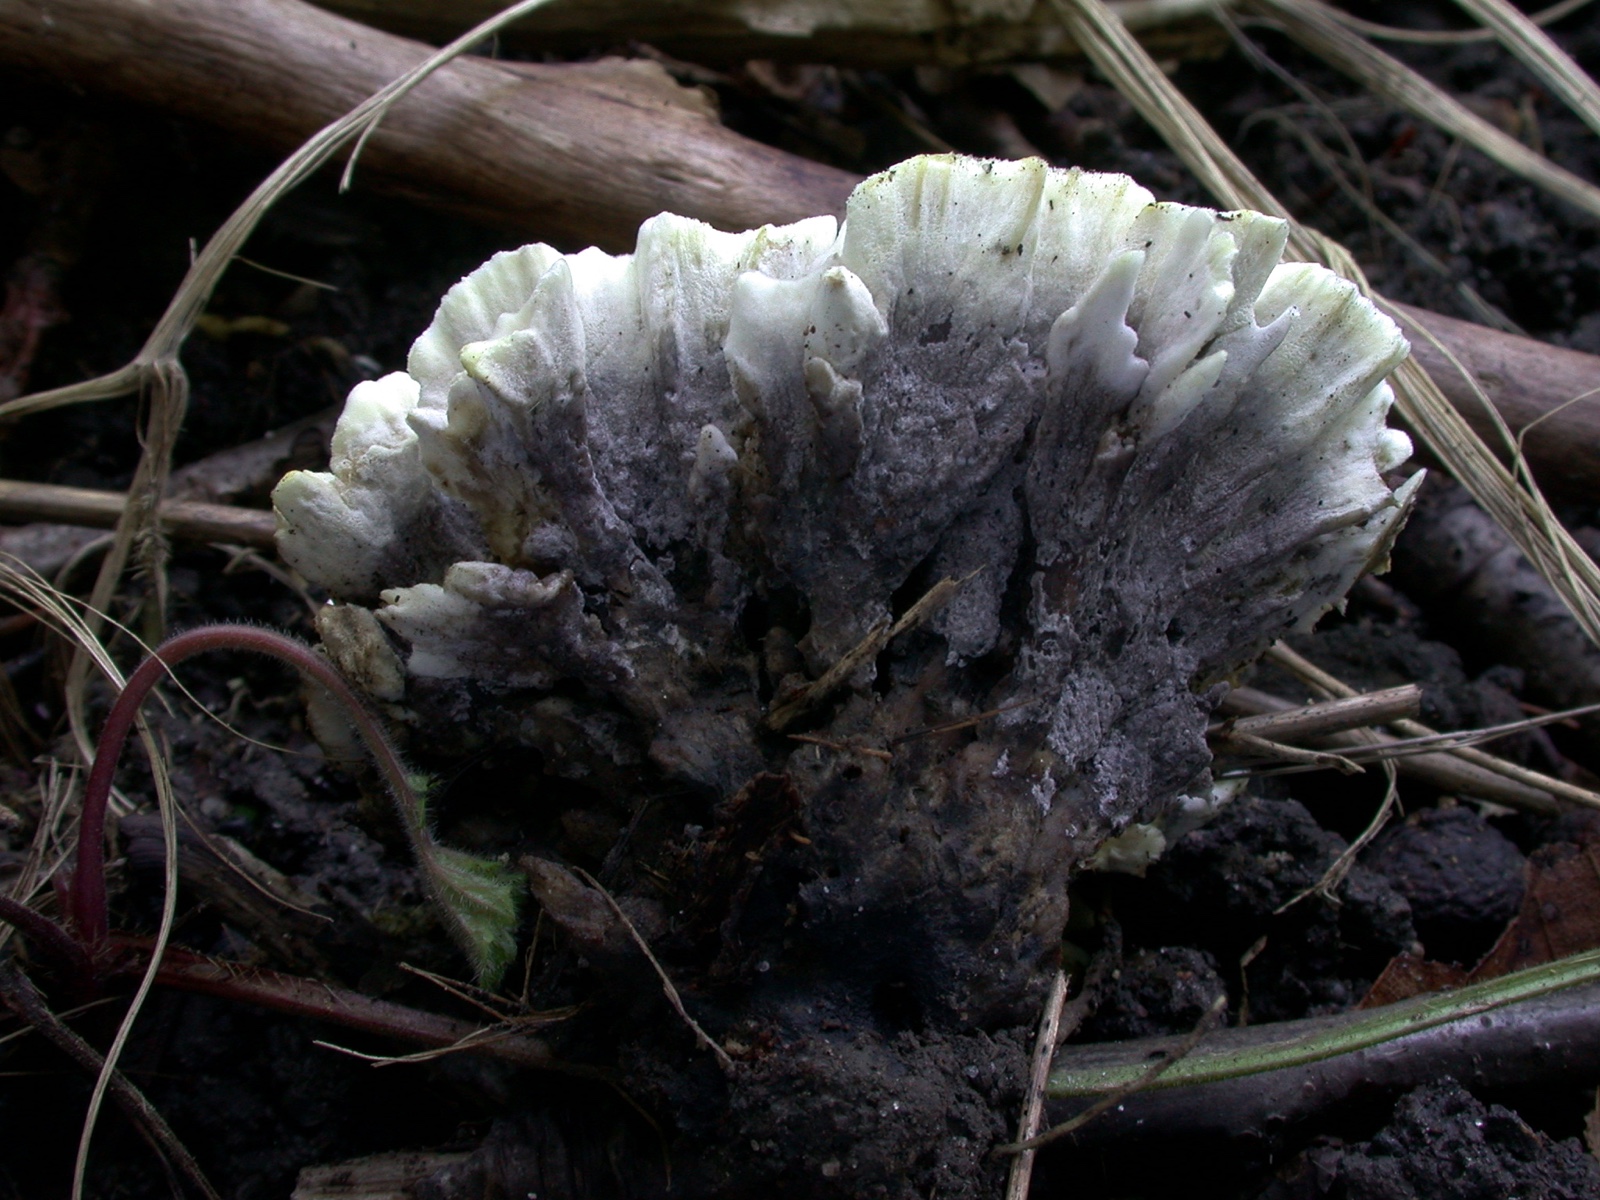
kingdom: Fungi
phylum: Basidiomycota
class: Agaricomycetes
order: Thelephorales
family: Thelephoraceae
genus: Thelephora
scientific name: Thelephora atra
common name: sort frynsesvamp
